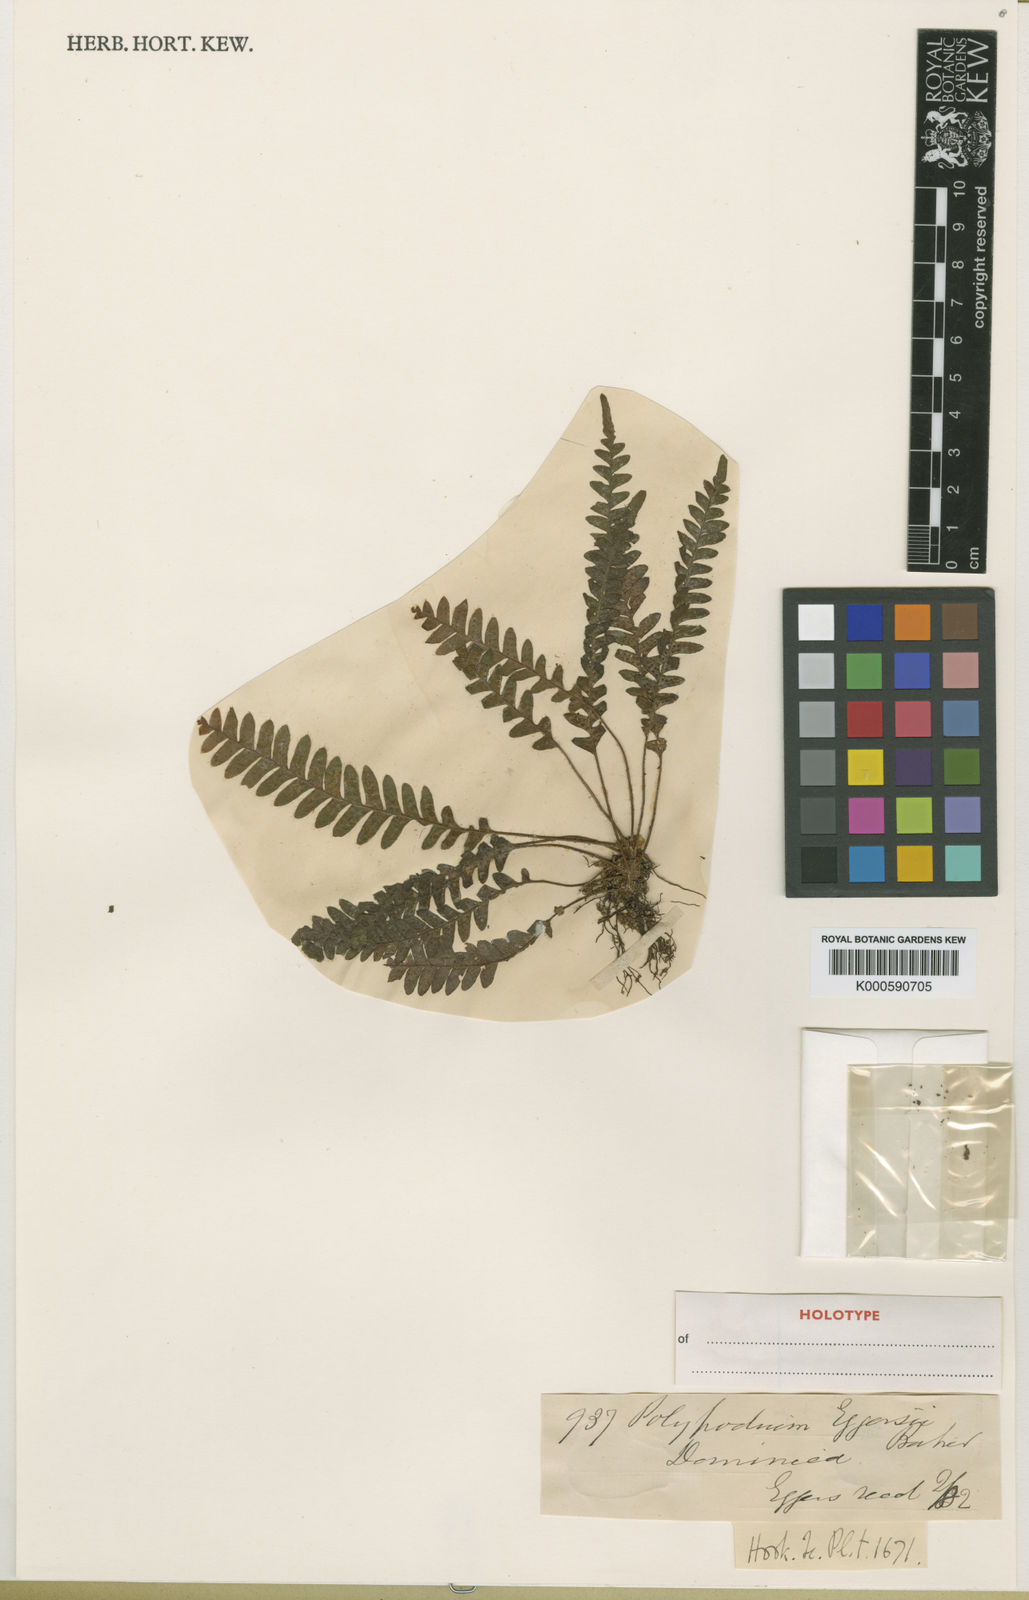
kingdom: Plantae
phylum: Tracheophyta
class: Polypodiopsida
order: Polypodiales
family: Polypodiaceae
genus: Terpsichore
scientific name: Terpsichore eggersii
